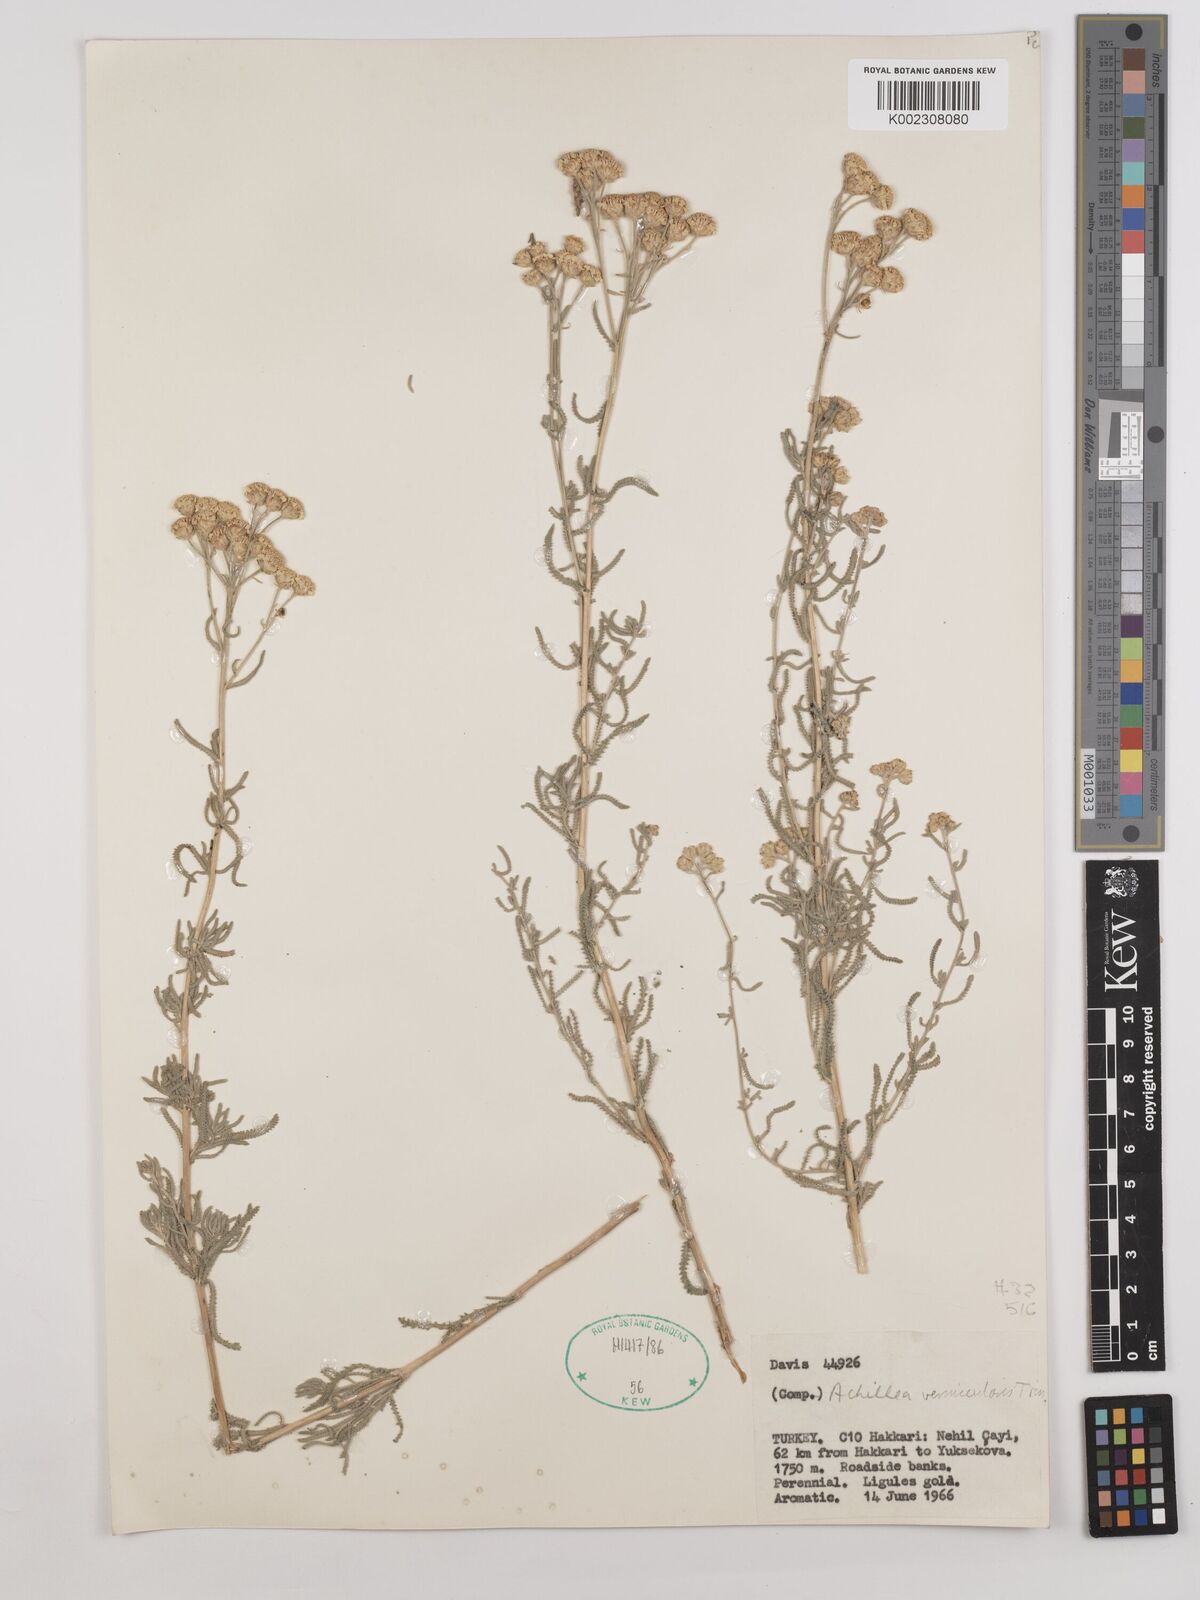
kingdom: Plantae
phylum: Tracheophyta
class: Magnoliopsida
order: Asterales
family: Asteraceae
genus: Achillea
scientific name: Achillea vermicularis
